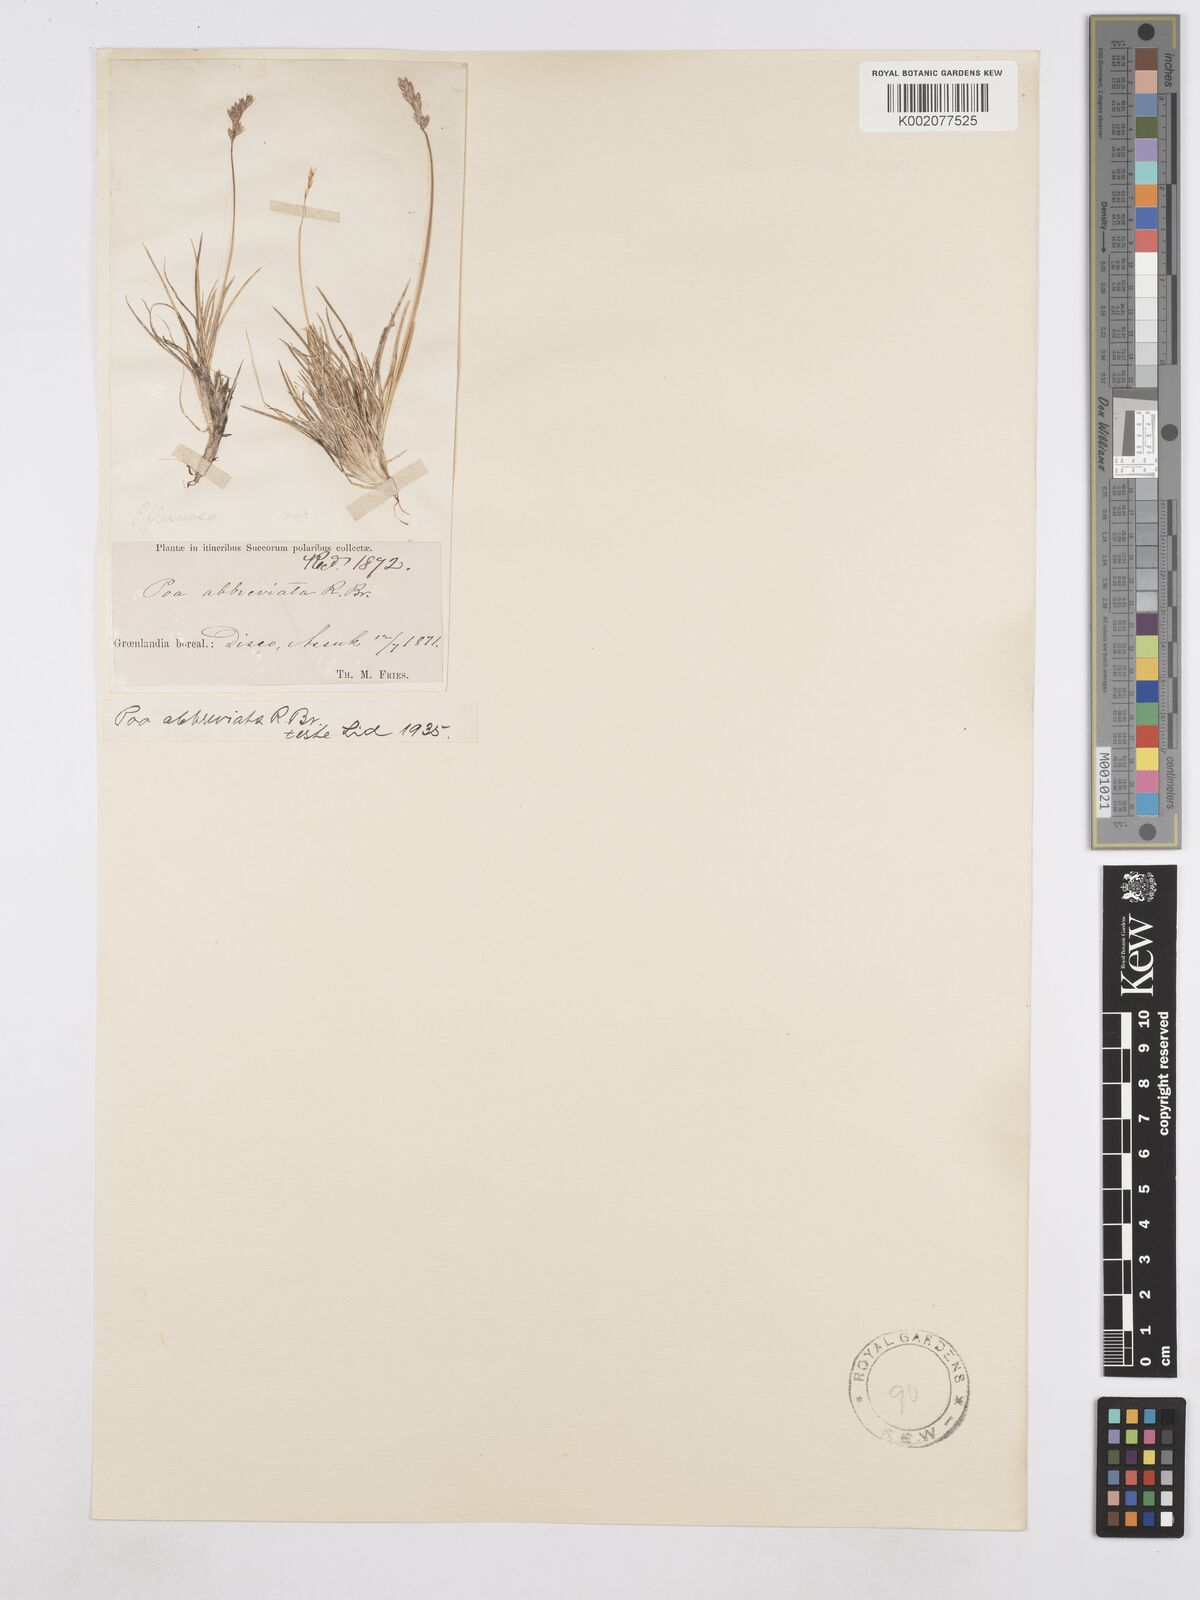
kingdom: Plantae
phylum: Tracheophyta
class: Liliopsida
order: Poales
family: Poaceae
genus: Poa
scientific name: Poa abbreviata
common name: Abbreviated bluegrass
